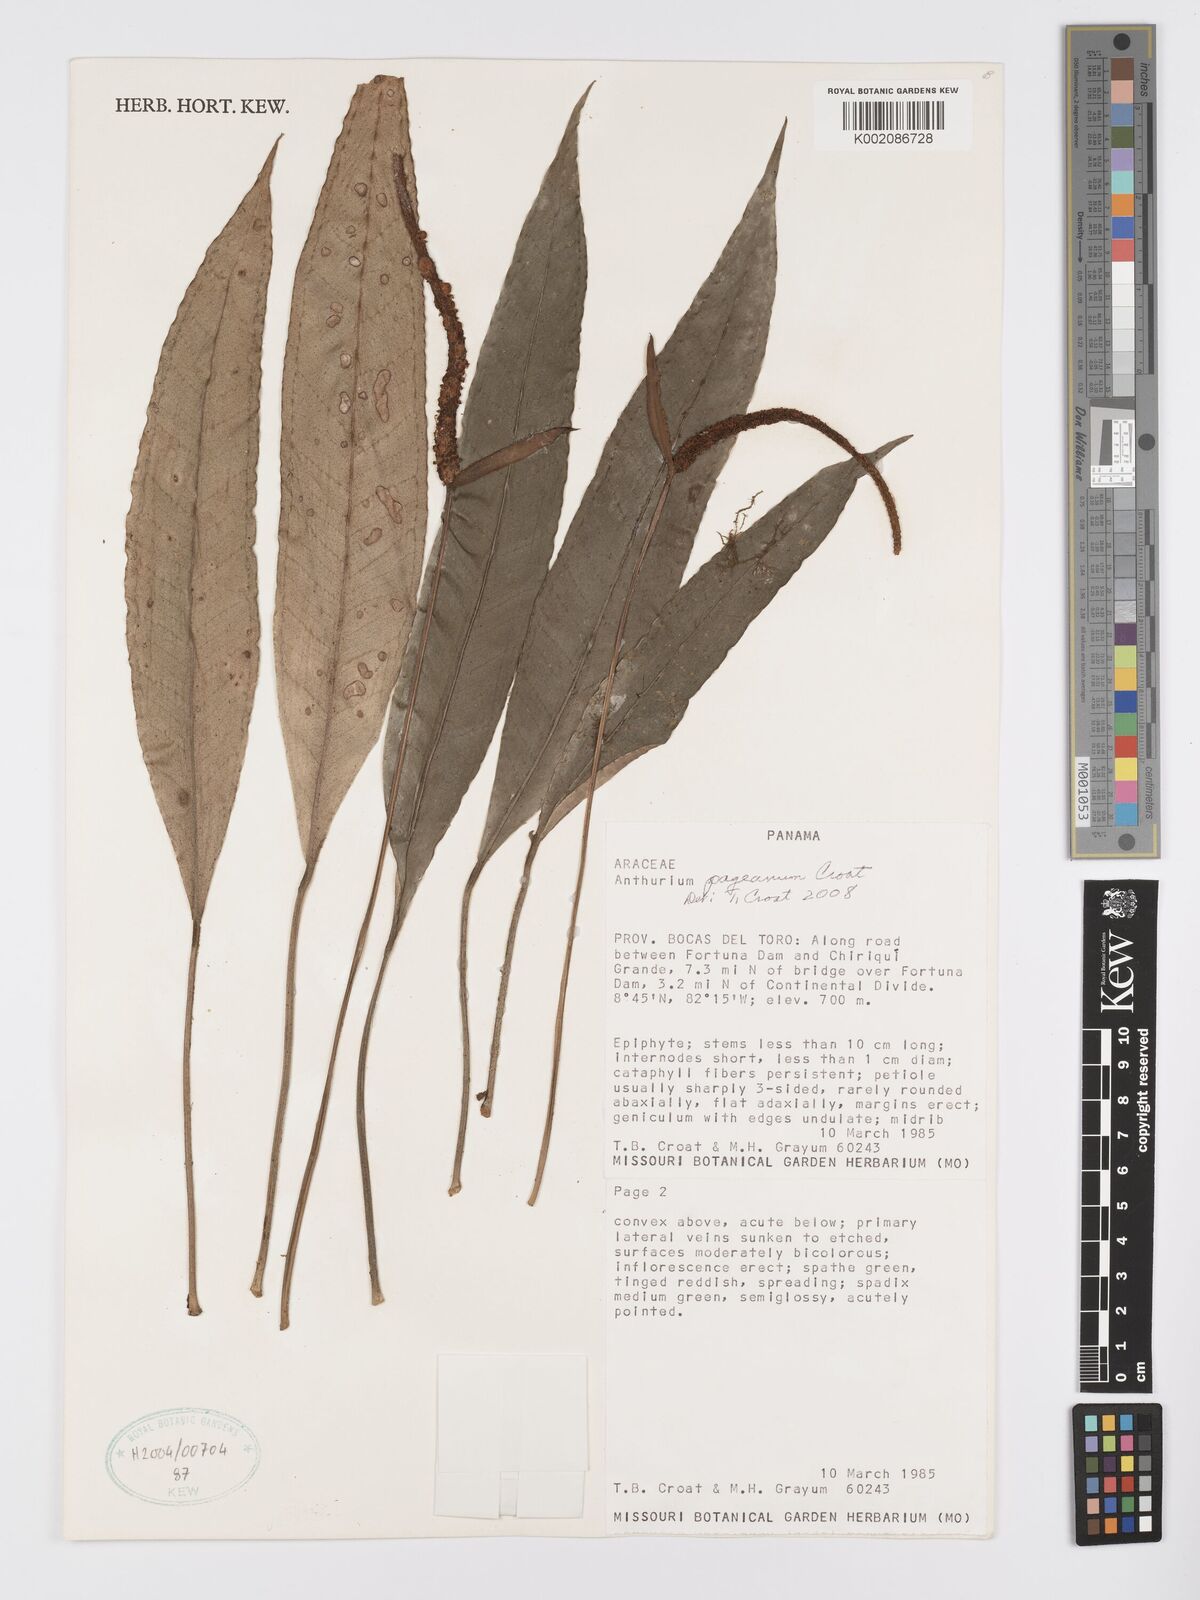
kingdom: Plantae
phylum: Tracheophyta
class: Liliopsida
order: Alismatales
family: Araceae
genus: Anthurium
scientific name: Anthurium pageanum
